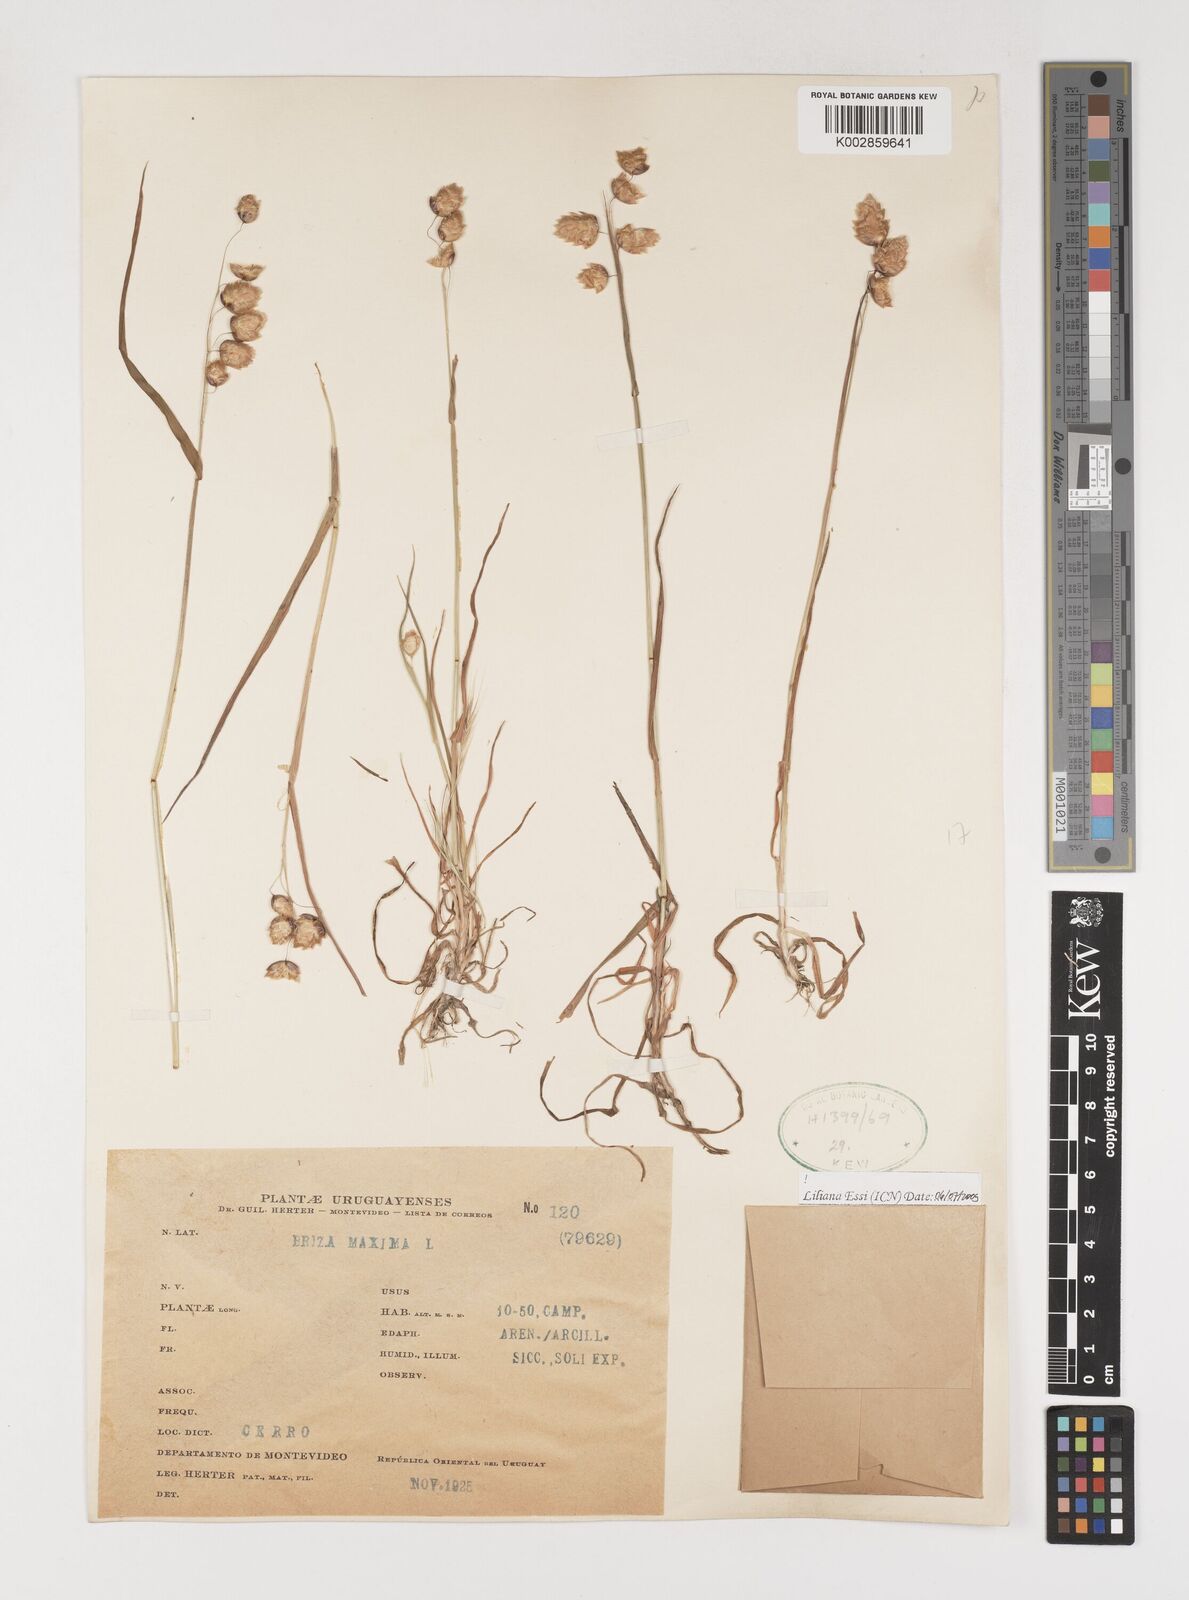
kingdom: Plantae
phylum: Tracheophyta
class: Liliopsida
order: Poales
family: Poaceae
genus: Briza
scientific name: Briza maxima
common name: Big quakinggrass
